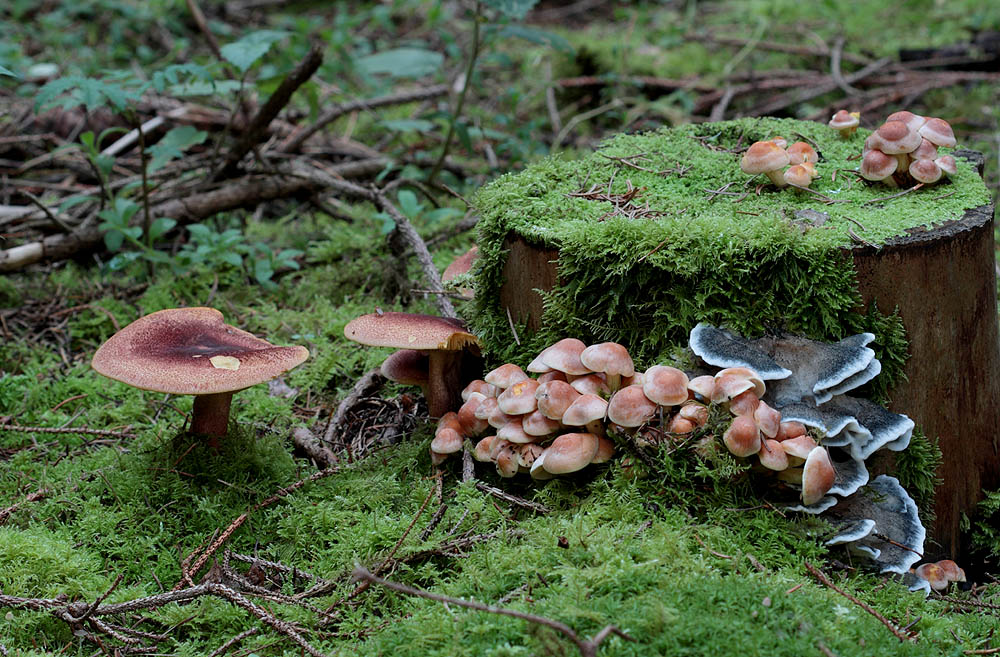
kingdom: Fungi
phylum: Basidiomycota
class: Agaricomycetes
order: Polyporales
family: Polyporaceae
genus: Cyanosporus
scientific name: Cyanosporus caesius
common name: blålig kødporesvamp
